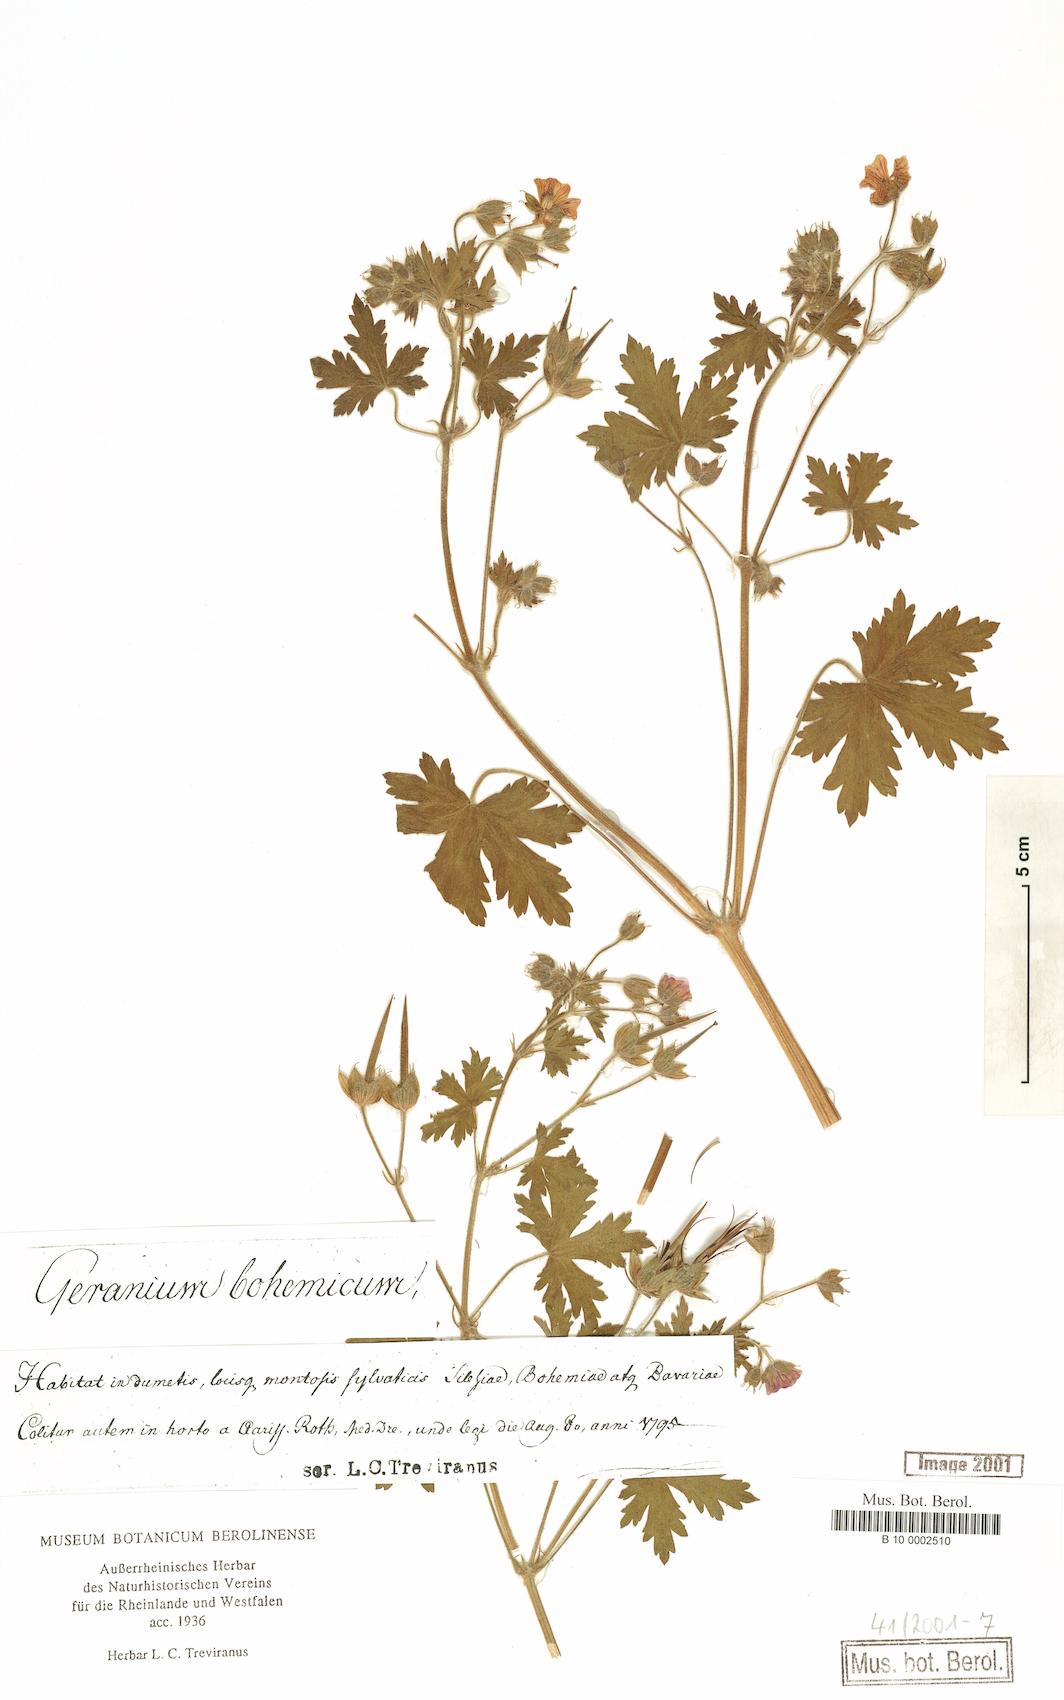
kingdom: Plantae
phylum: Tracheophyta
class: Magnoliopsida
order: Geraniales
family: Geraniaceae
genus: Geranium
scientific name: Geranium bohemicum
